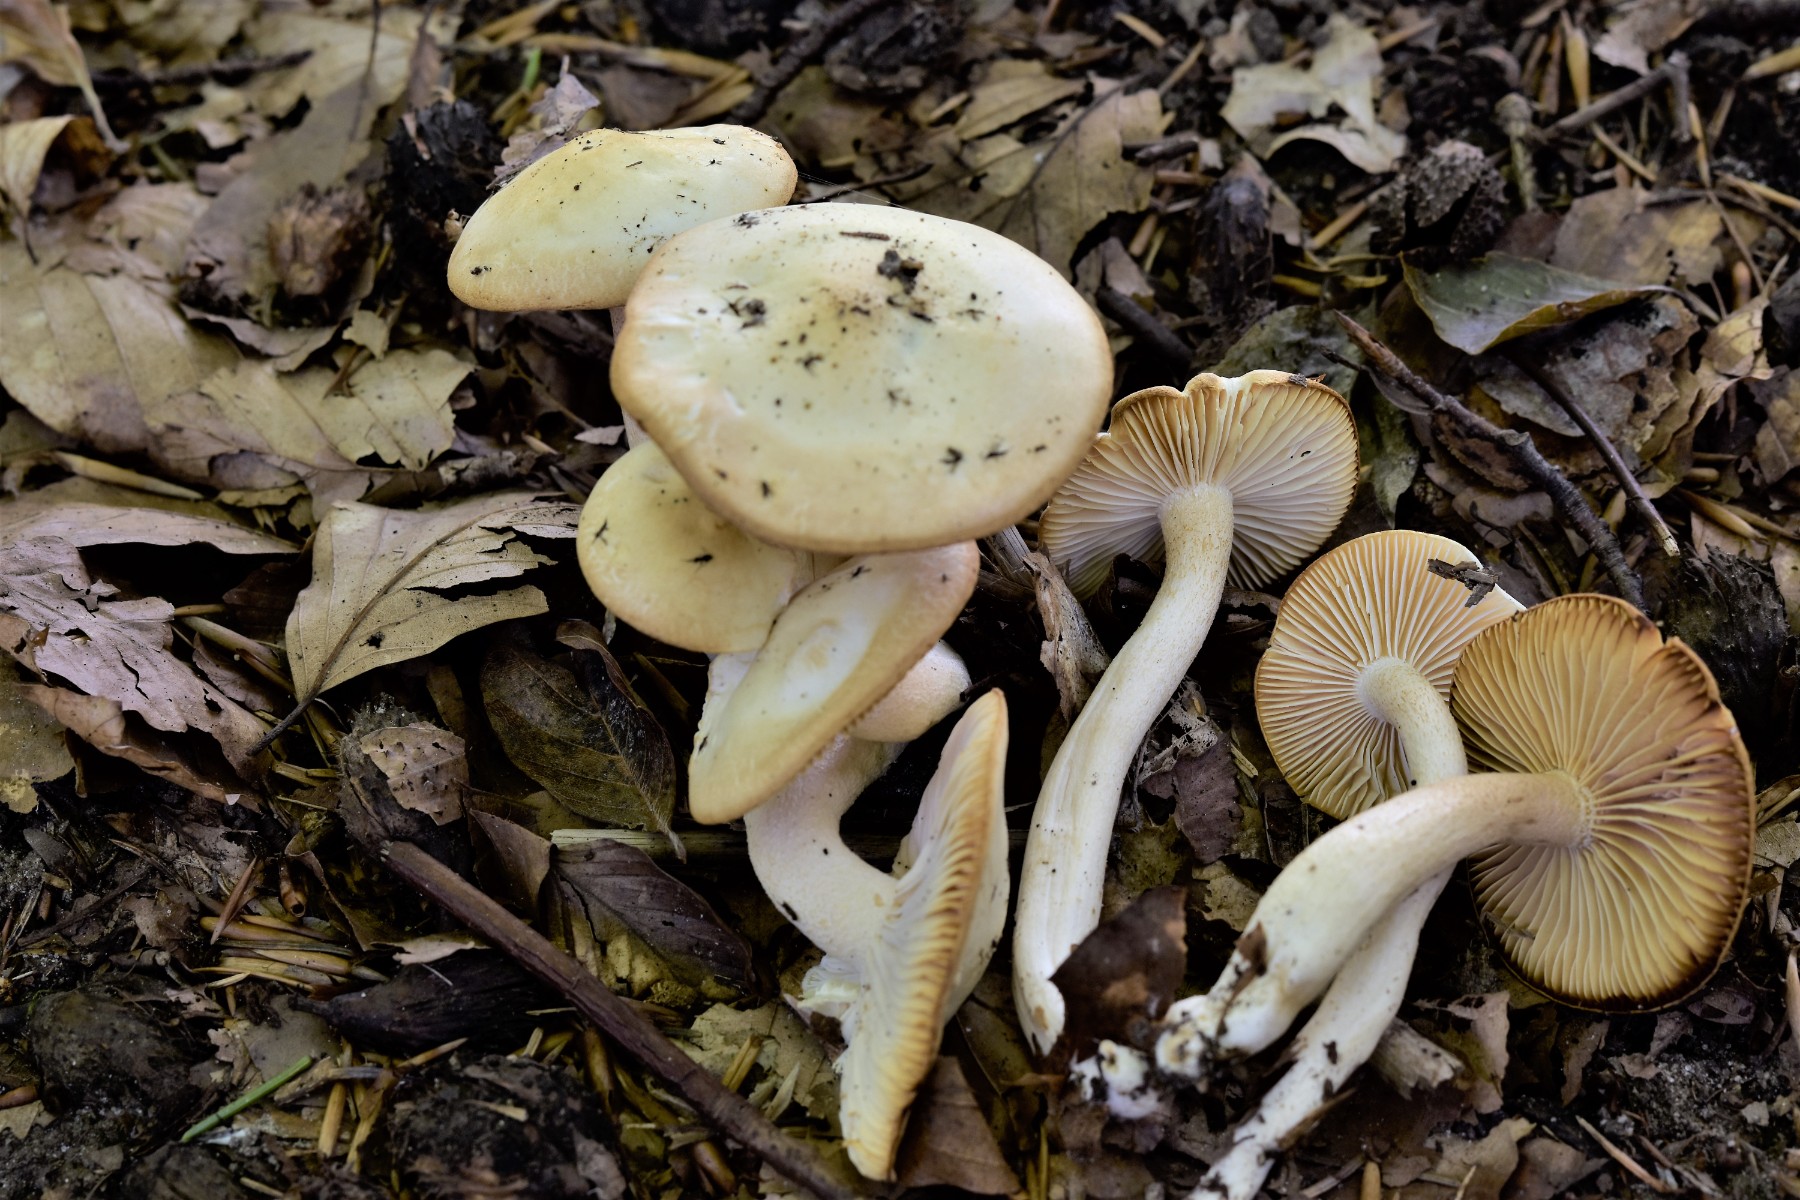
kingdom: Fungi
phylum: Basidiomycota
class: Agaricomycetes
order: Agaricales
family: Hygrophoraceae
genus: Hygrophorus
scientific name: Hygrophorus discoxanthus
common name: ildelugtende sneglehat
